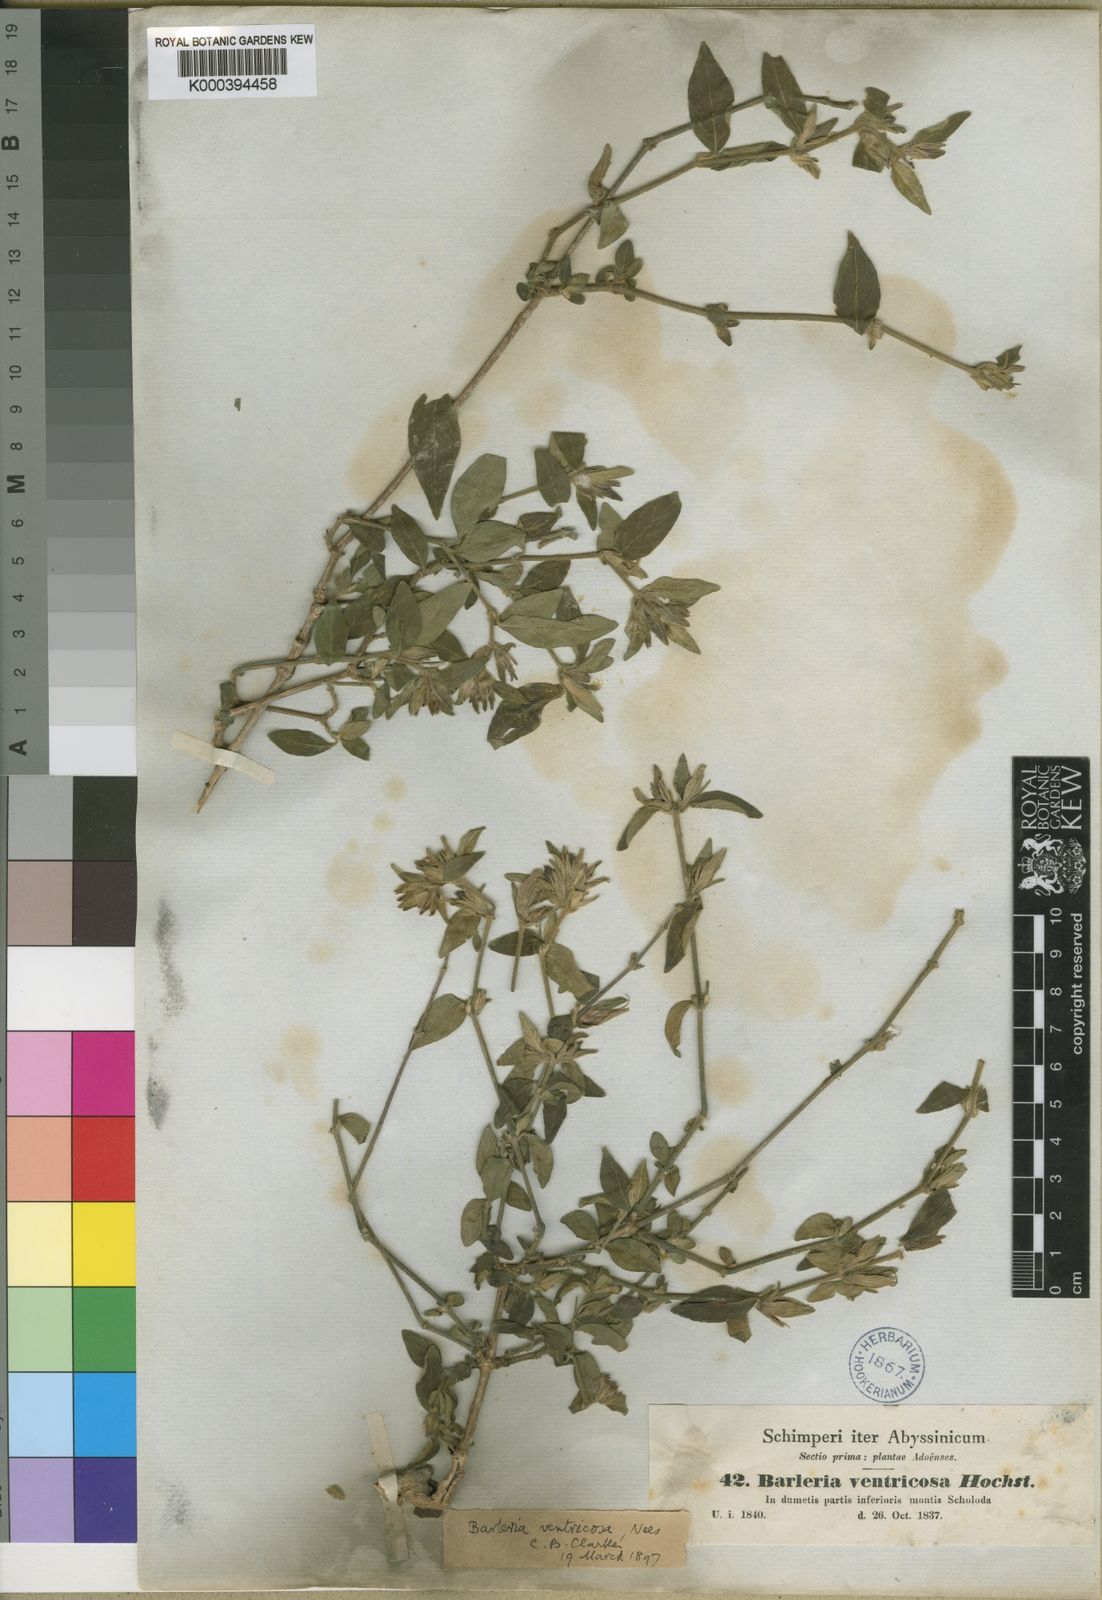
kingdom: Plantae
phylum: Tracheophyta
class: Magnoliopsida
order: Lamiales
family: Acanthaceae
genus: Barleria
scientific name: Barleria ventricosa
